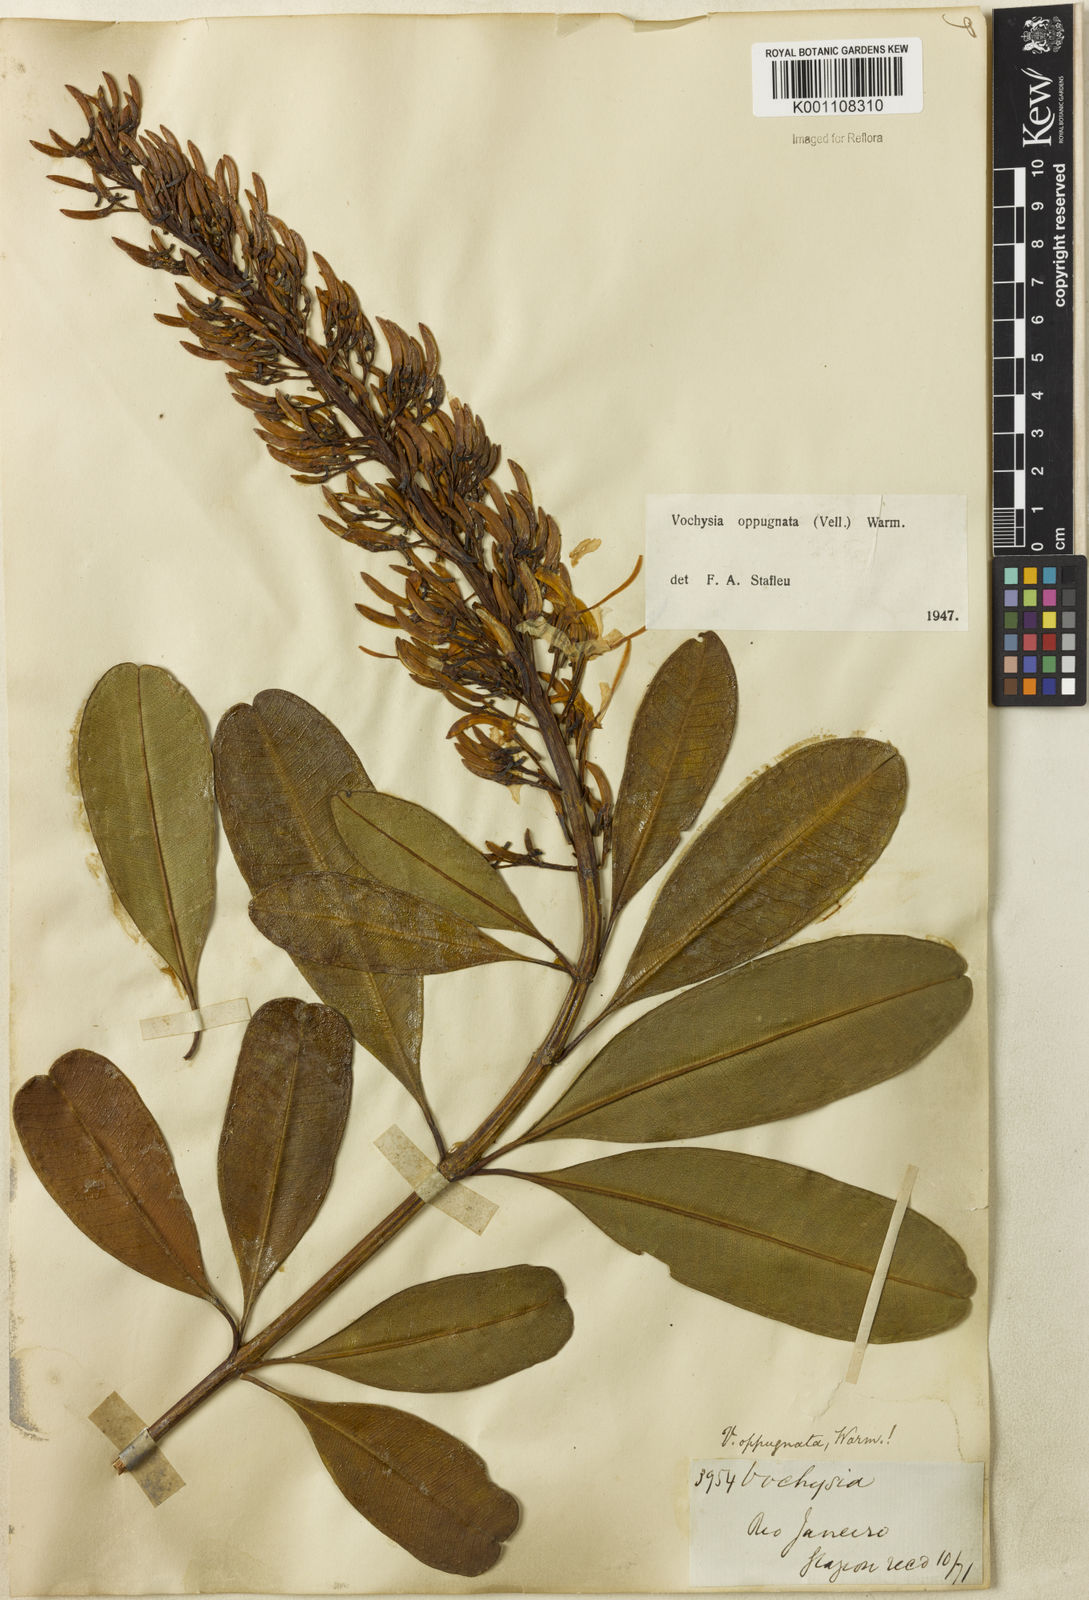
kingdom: Plantae
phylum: Tracheophyta
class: Magnoliopsida
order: Myrtales
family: Vochysiaceae
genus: Vochysia
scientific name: Vochysia oppugnata
